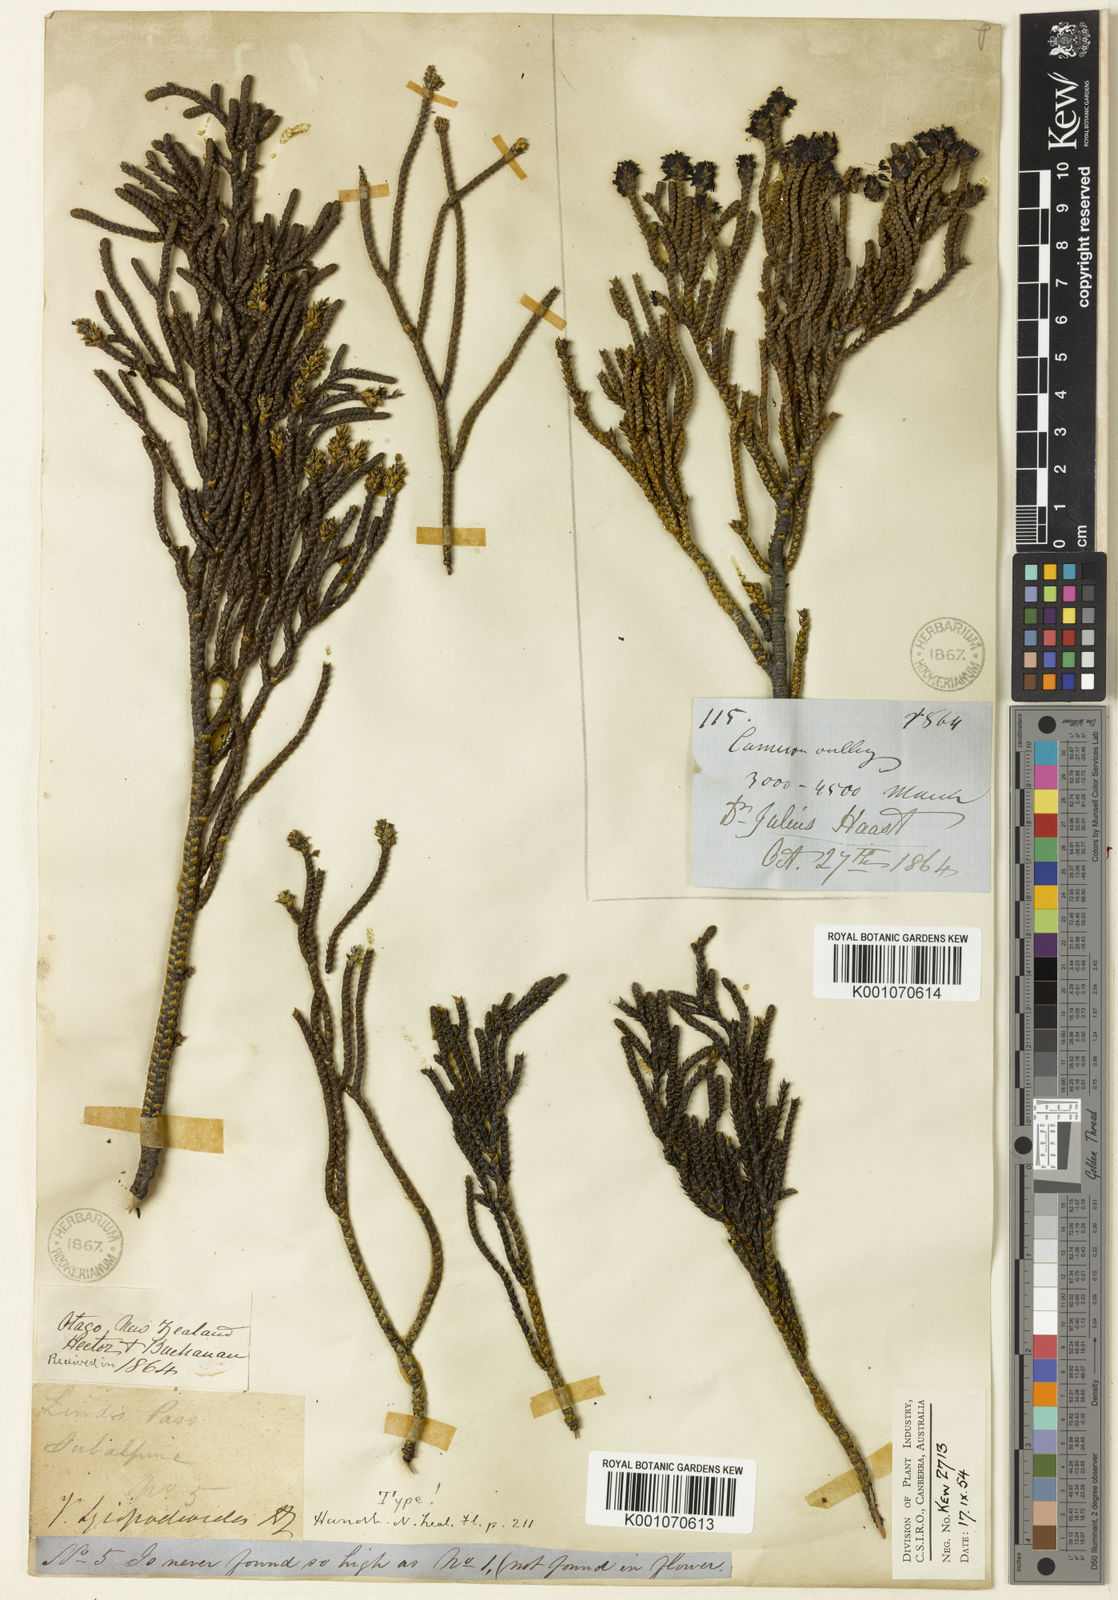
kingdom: Plantae
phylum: Tracheophyta
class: Magnoliopsida
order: Lamiales
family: Plantaginaceae
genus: Veronica
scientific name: Veronica lycopodioides
